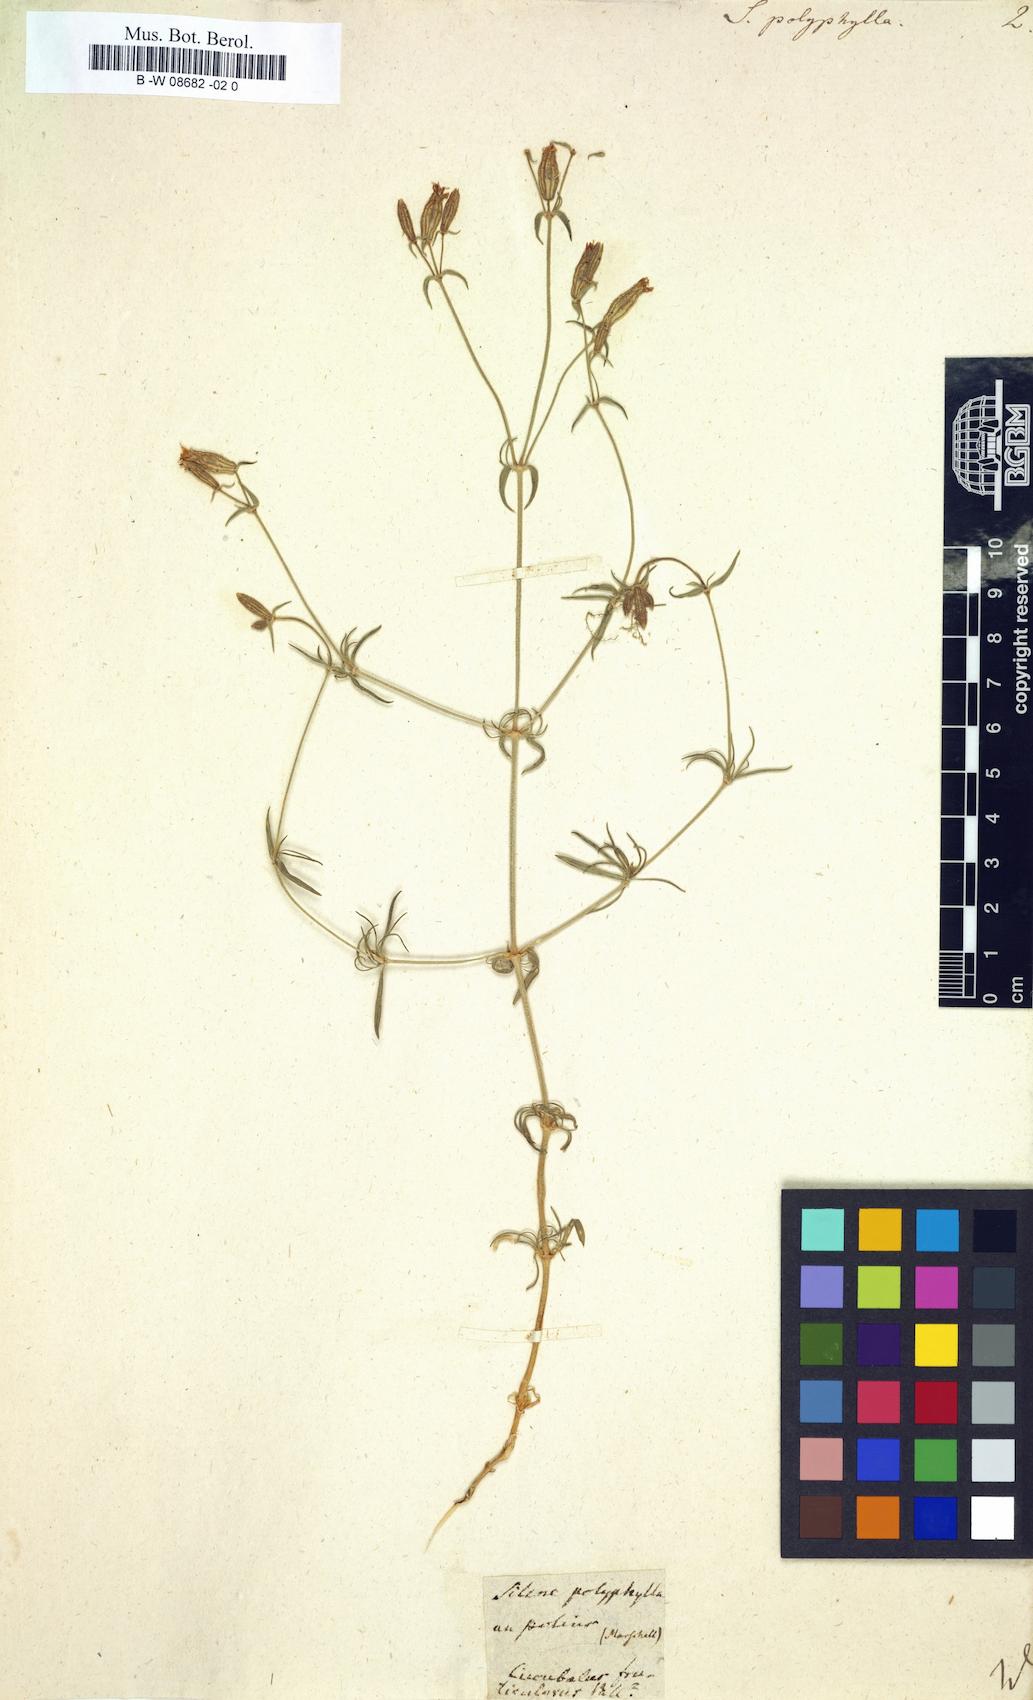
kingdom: Plantae
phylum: Tracheophyta
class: Magnoliopsida
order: Caryophyllales
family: Caryophyllaceae
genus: Silene
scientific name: Silene
